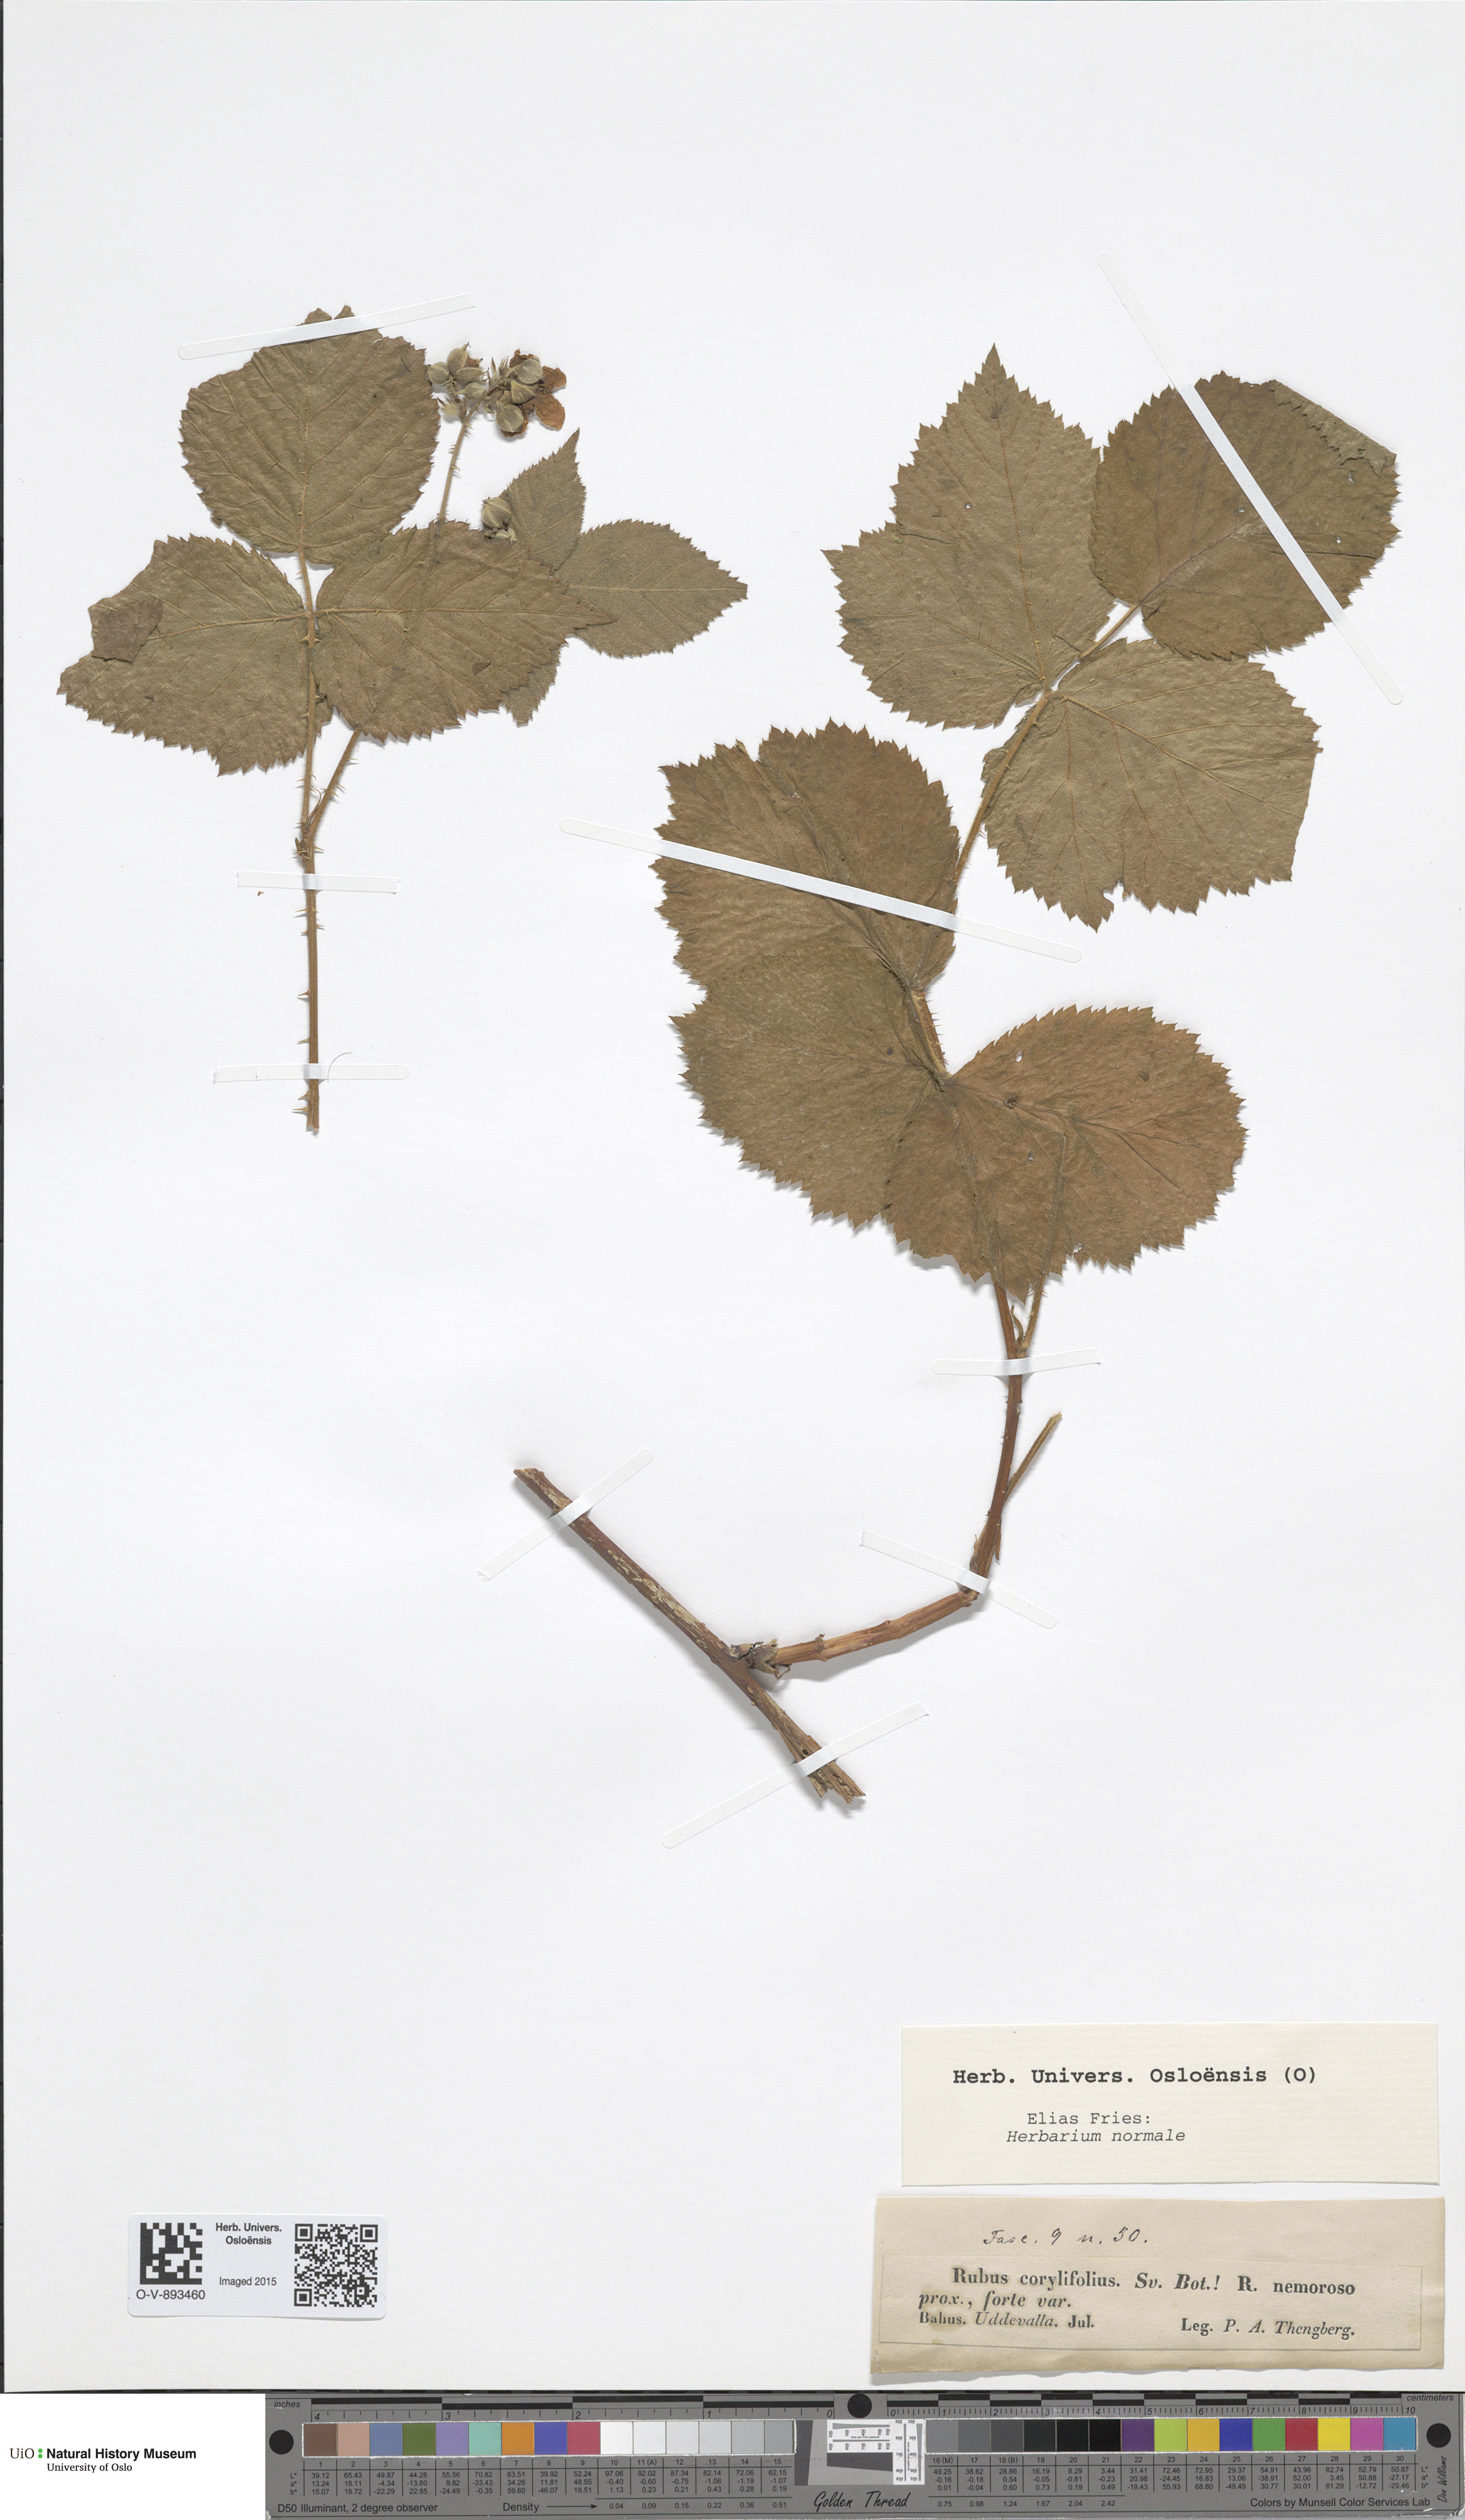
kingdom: Plantae
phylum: Tracheophyta
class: Magnoliopsida
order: Rosales
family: Rosaceae
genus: Rubus
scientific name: Rubus
